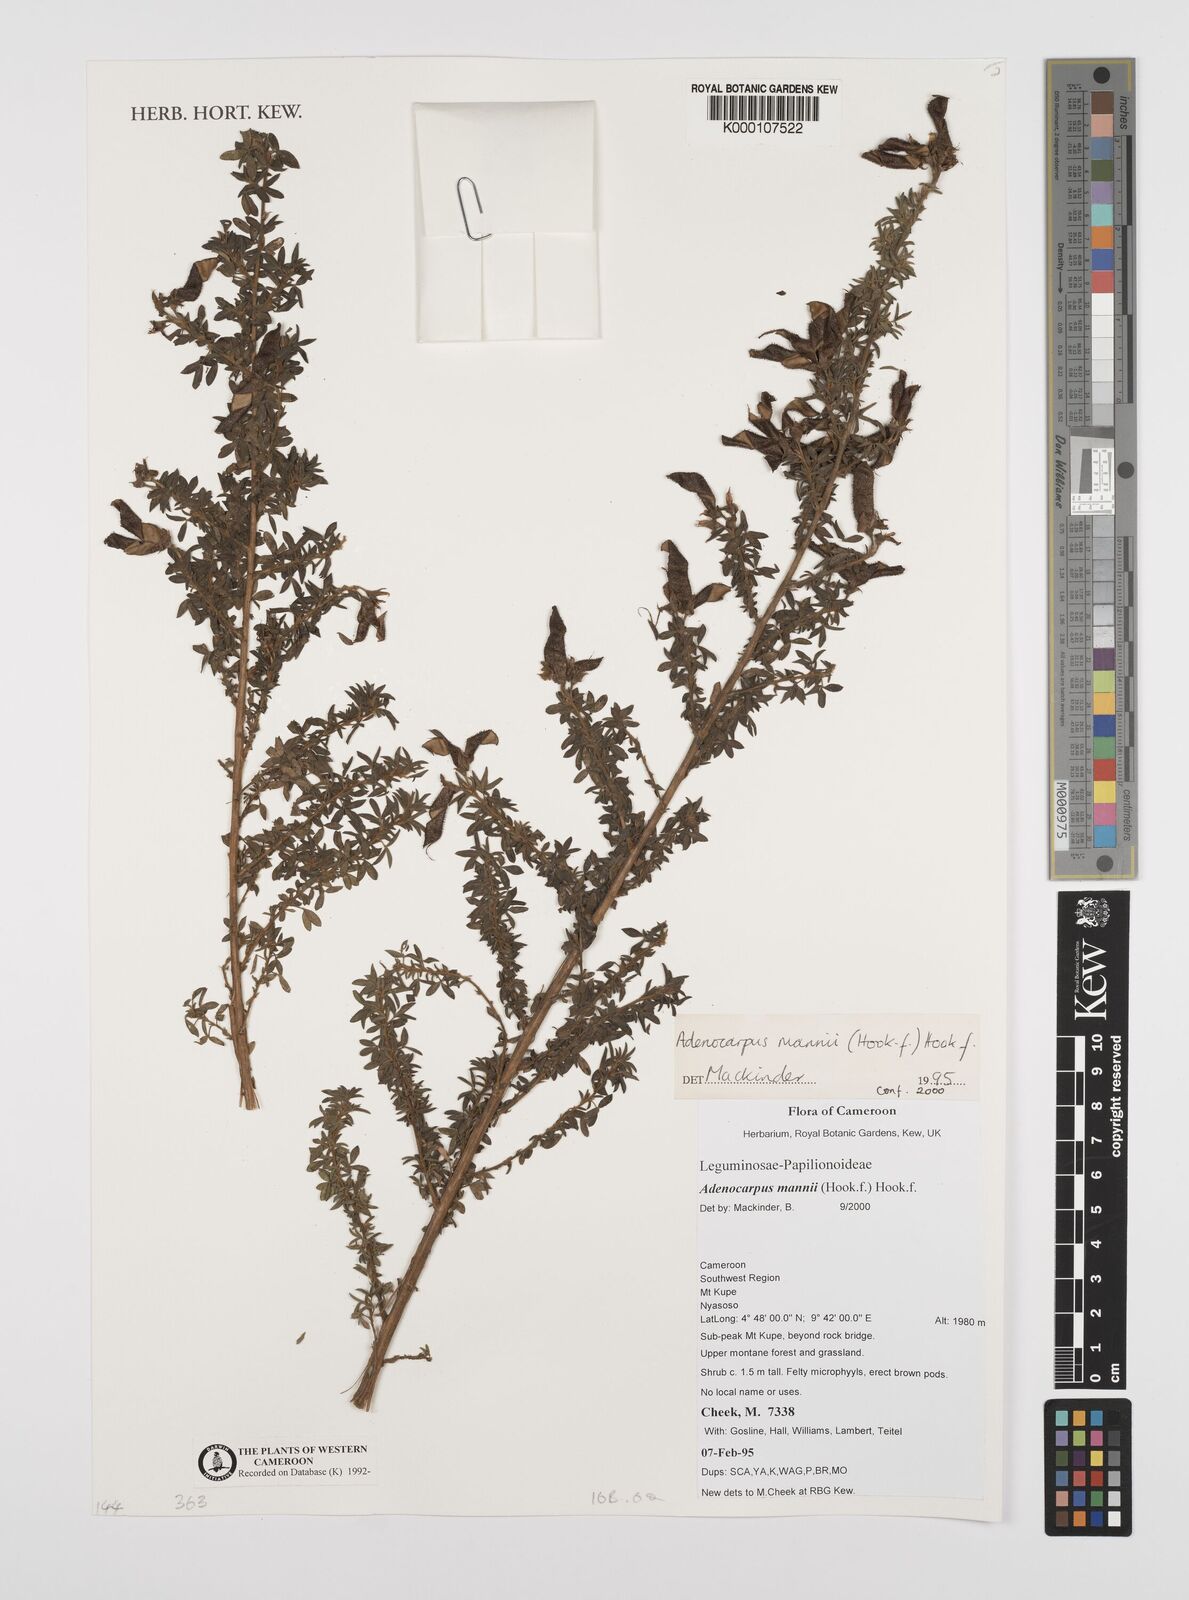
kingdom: Plantae
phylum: Tracheophyta
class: Magnoliopsida
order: Fabales
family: Fabaceae
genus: Adenocarpus
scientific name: Adenocarpus mannii
